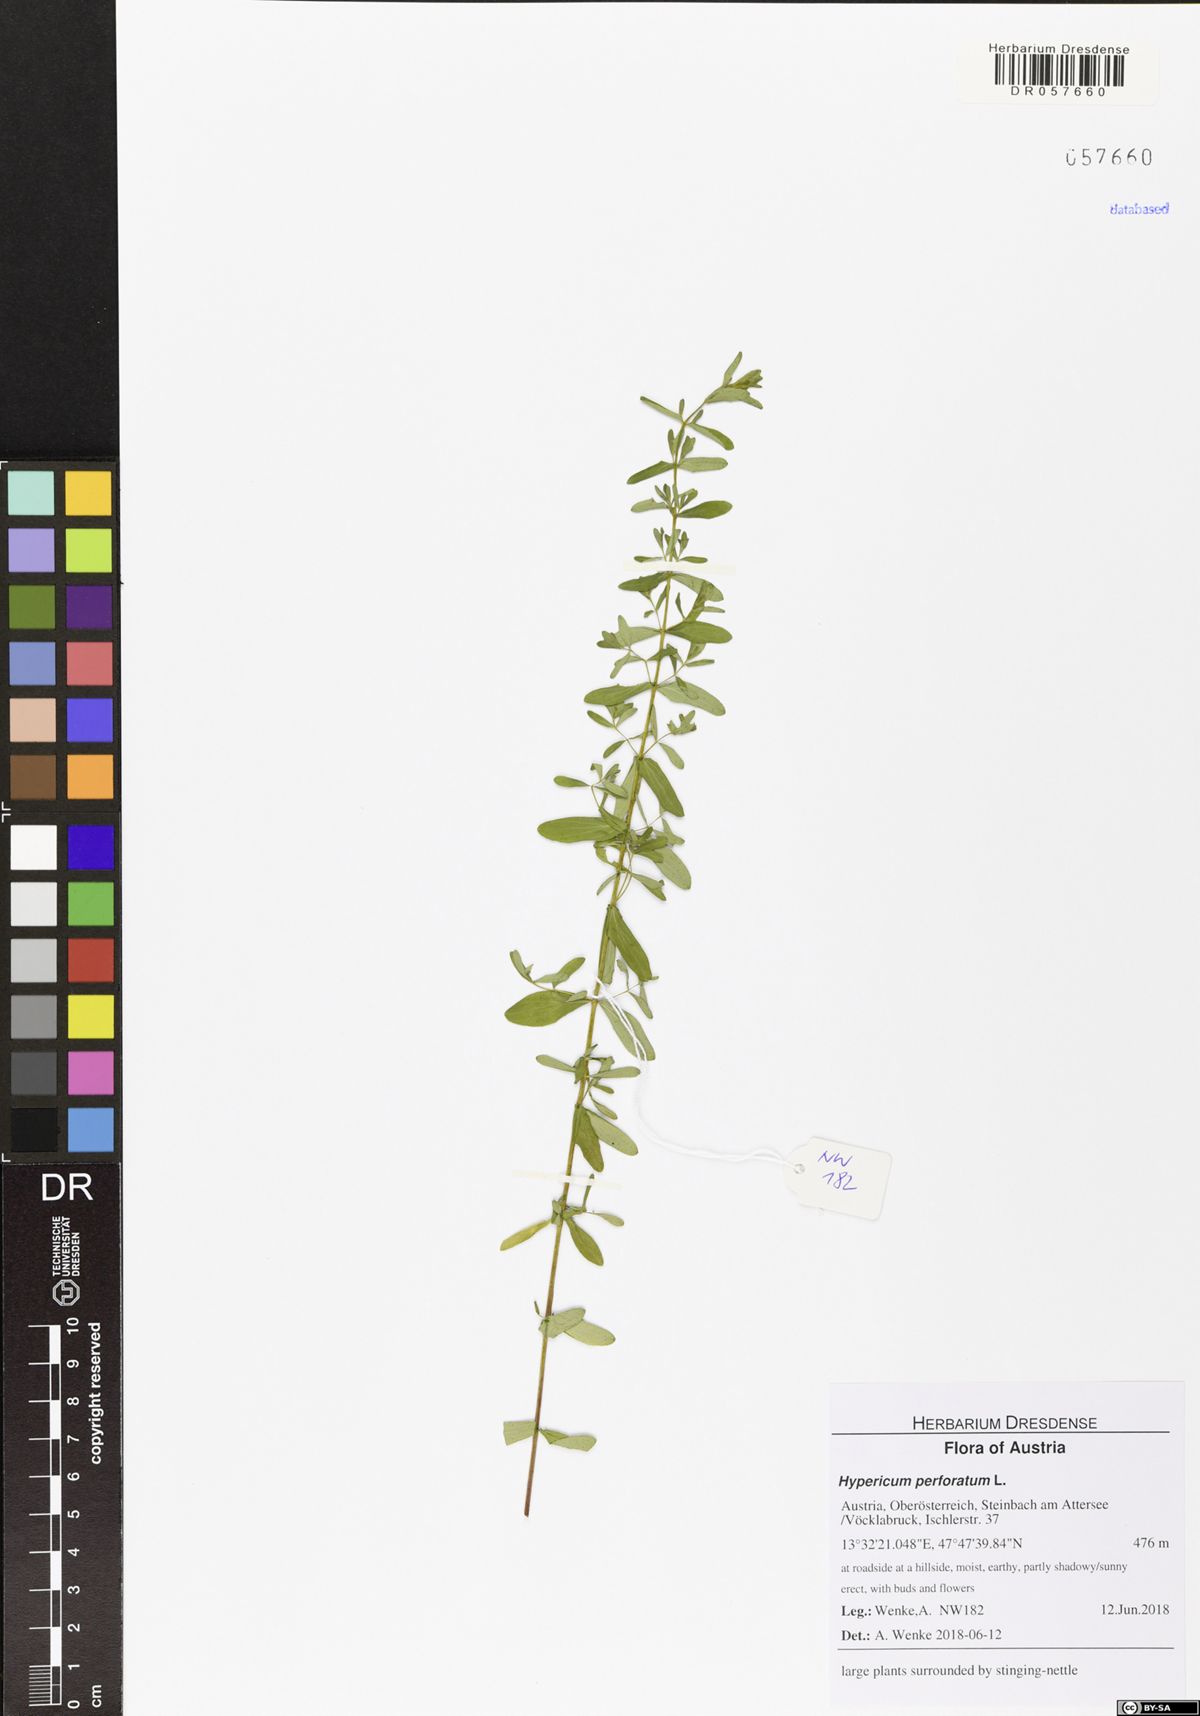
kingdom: Plantae
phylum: Tracheophyta
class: Magnoliopsida
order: Malpighiales
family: Hypericaceae
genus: Hypericum
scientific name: Hypericum perforatum
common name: Common st. johnswort
